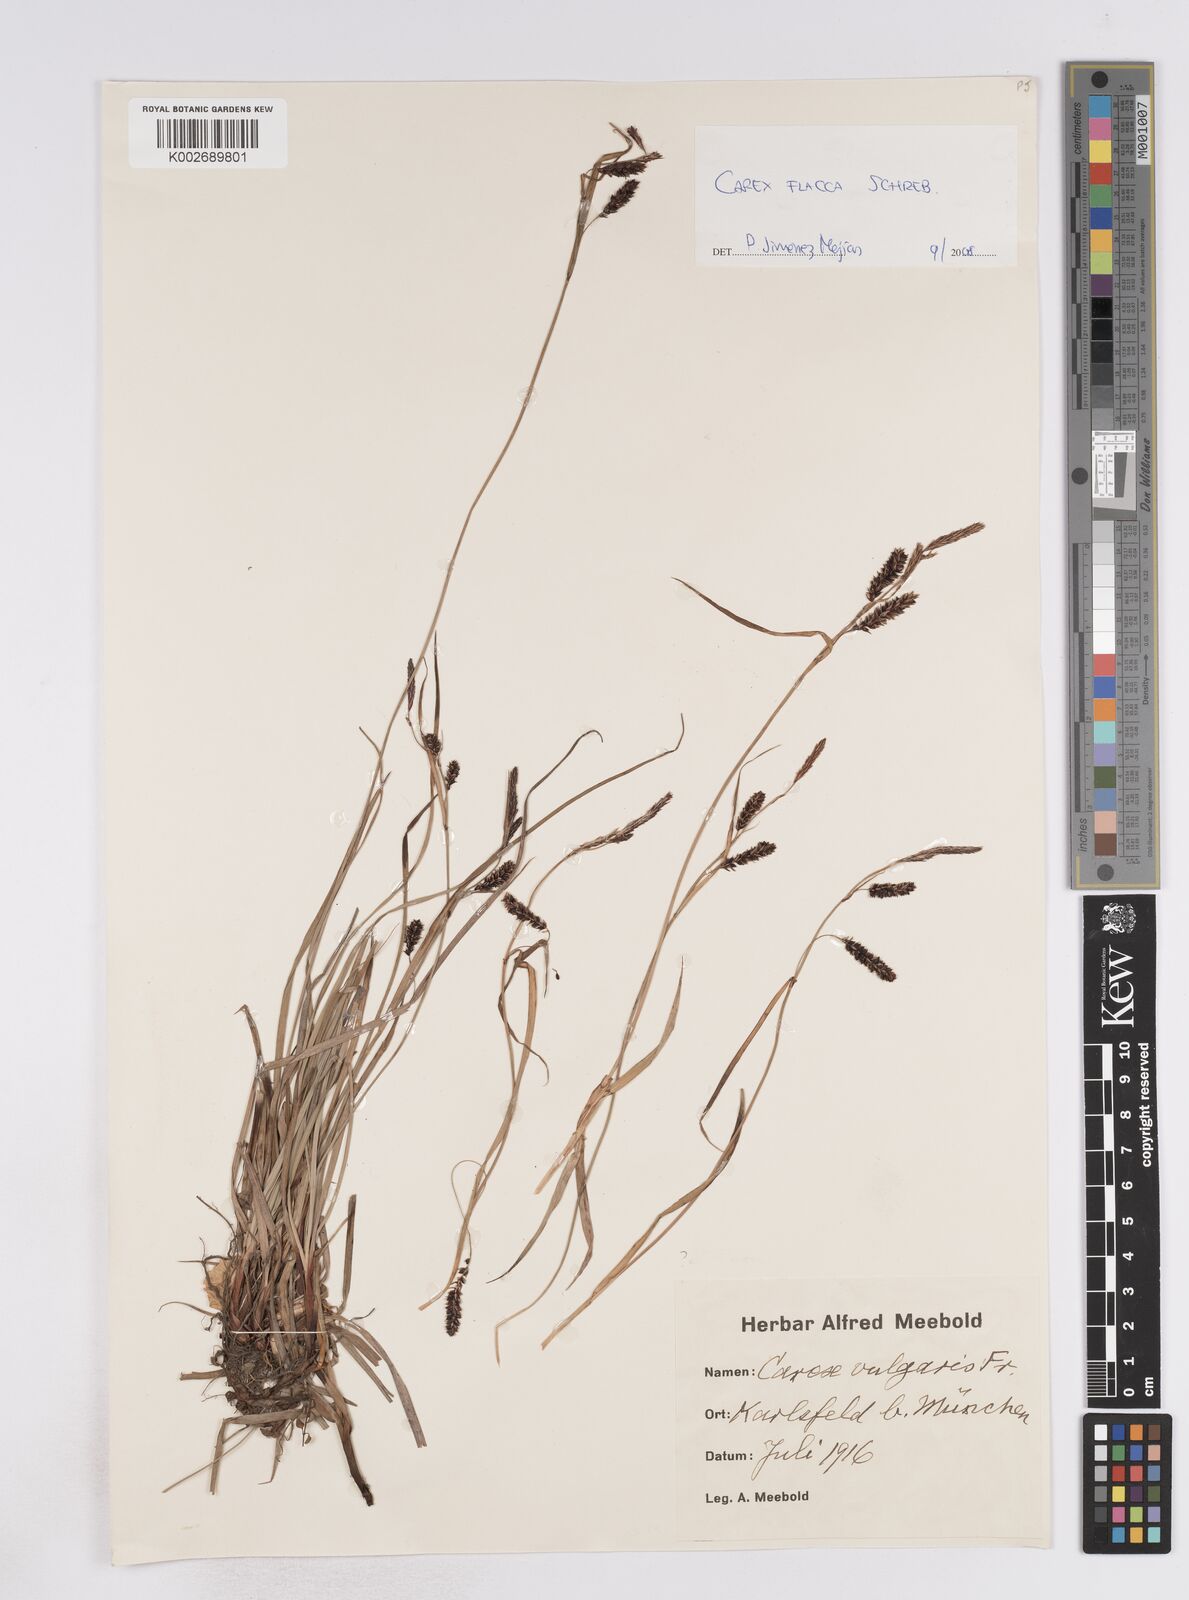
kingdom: Plantae
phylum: Tracheophyta
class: Liliopsida
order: Poales
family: Cyperaceae
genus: Carex
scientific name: Carex flacca
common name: Glaucous sedge
